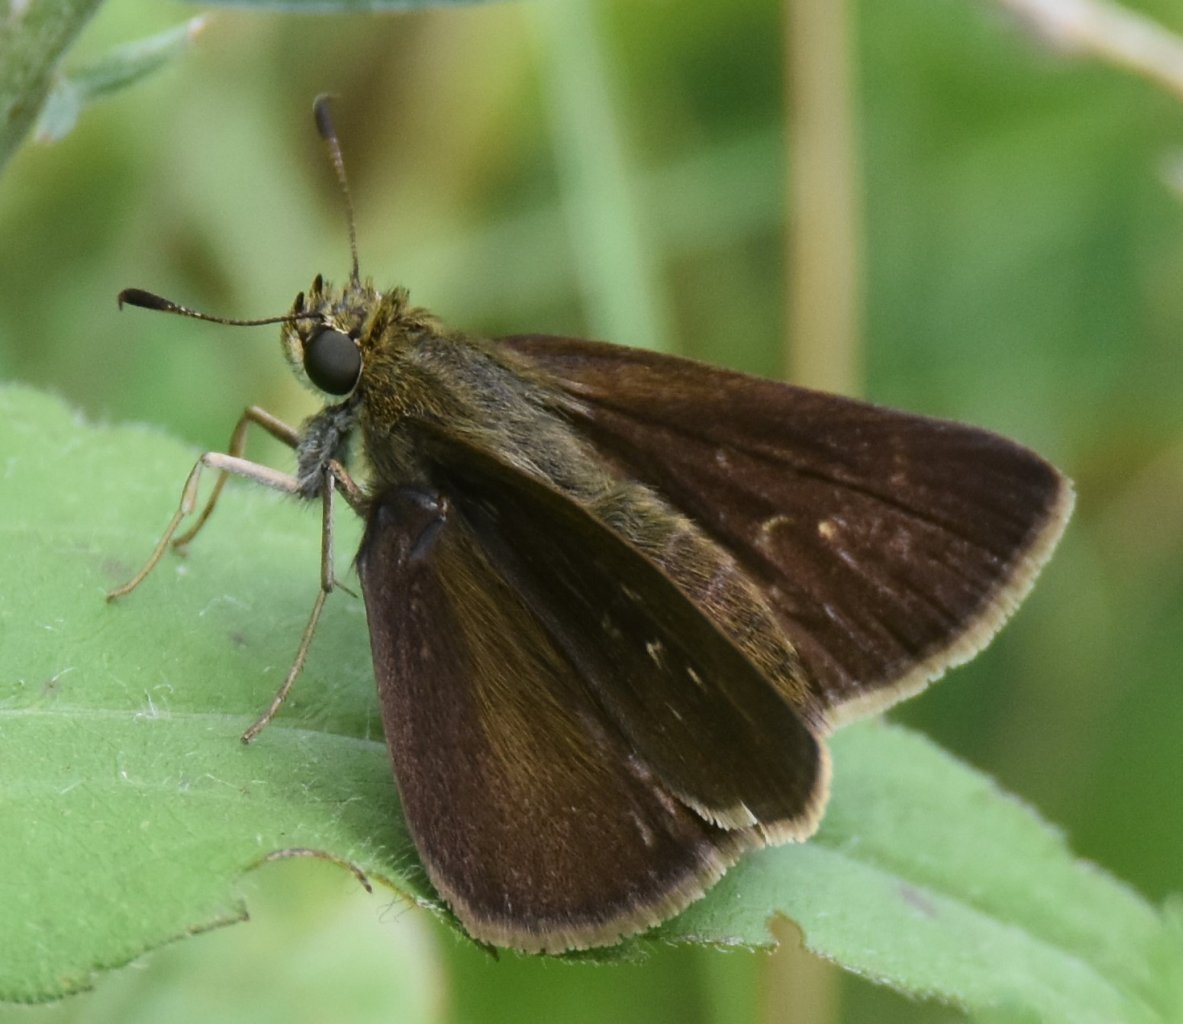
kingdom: Animalia
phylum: Arthropoda
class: Insecta
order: Lepidoptera
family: Hesperiidae
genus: Euphyes
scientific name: Euphyes vestris
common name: Dun Skipper
